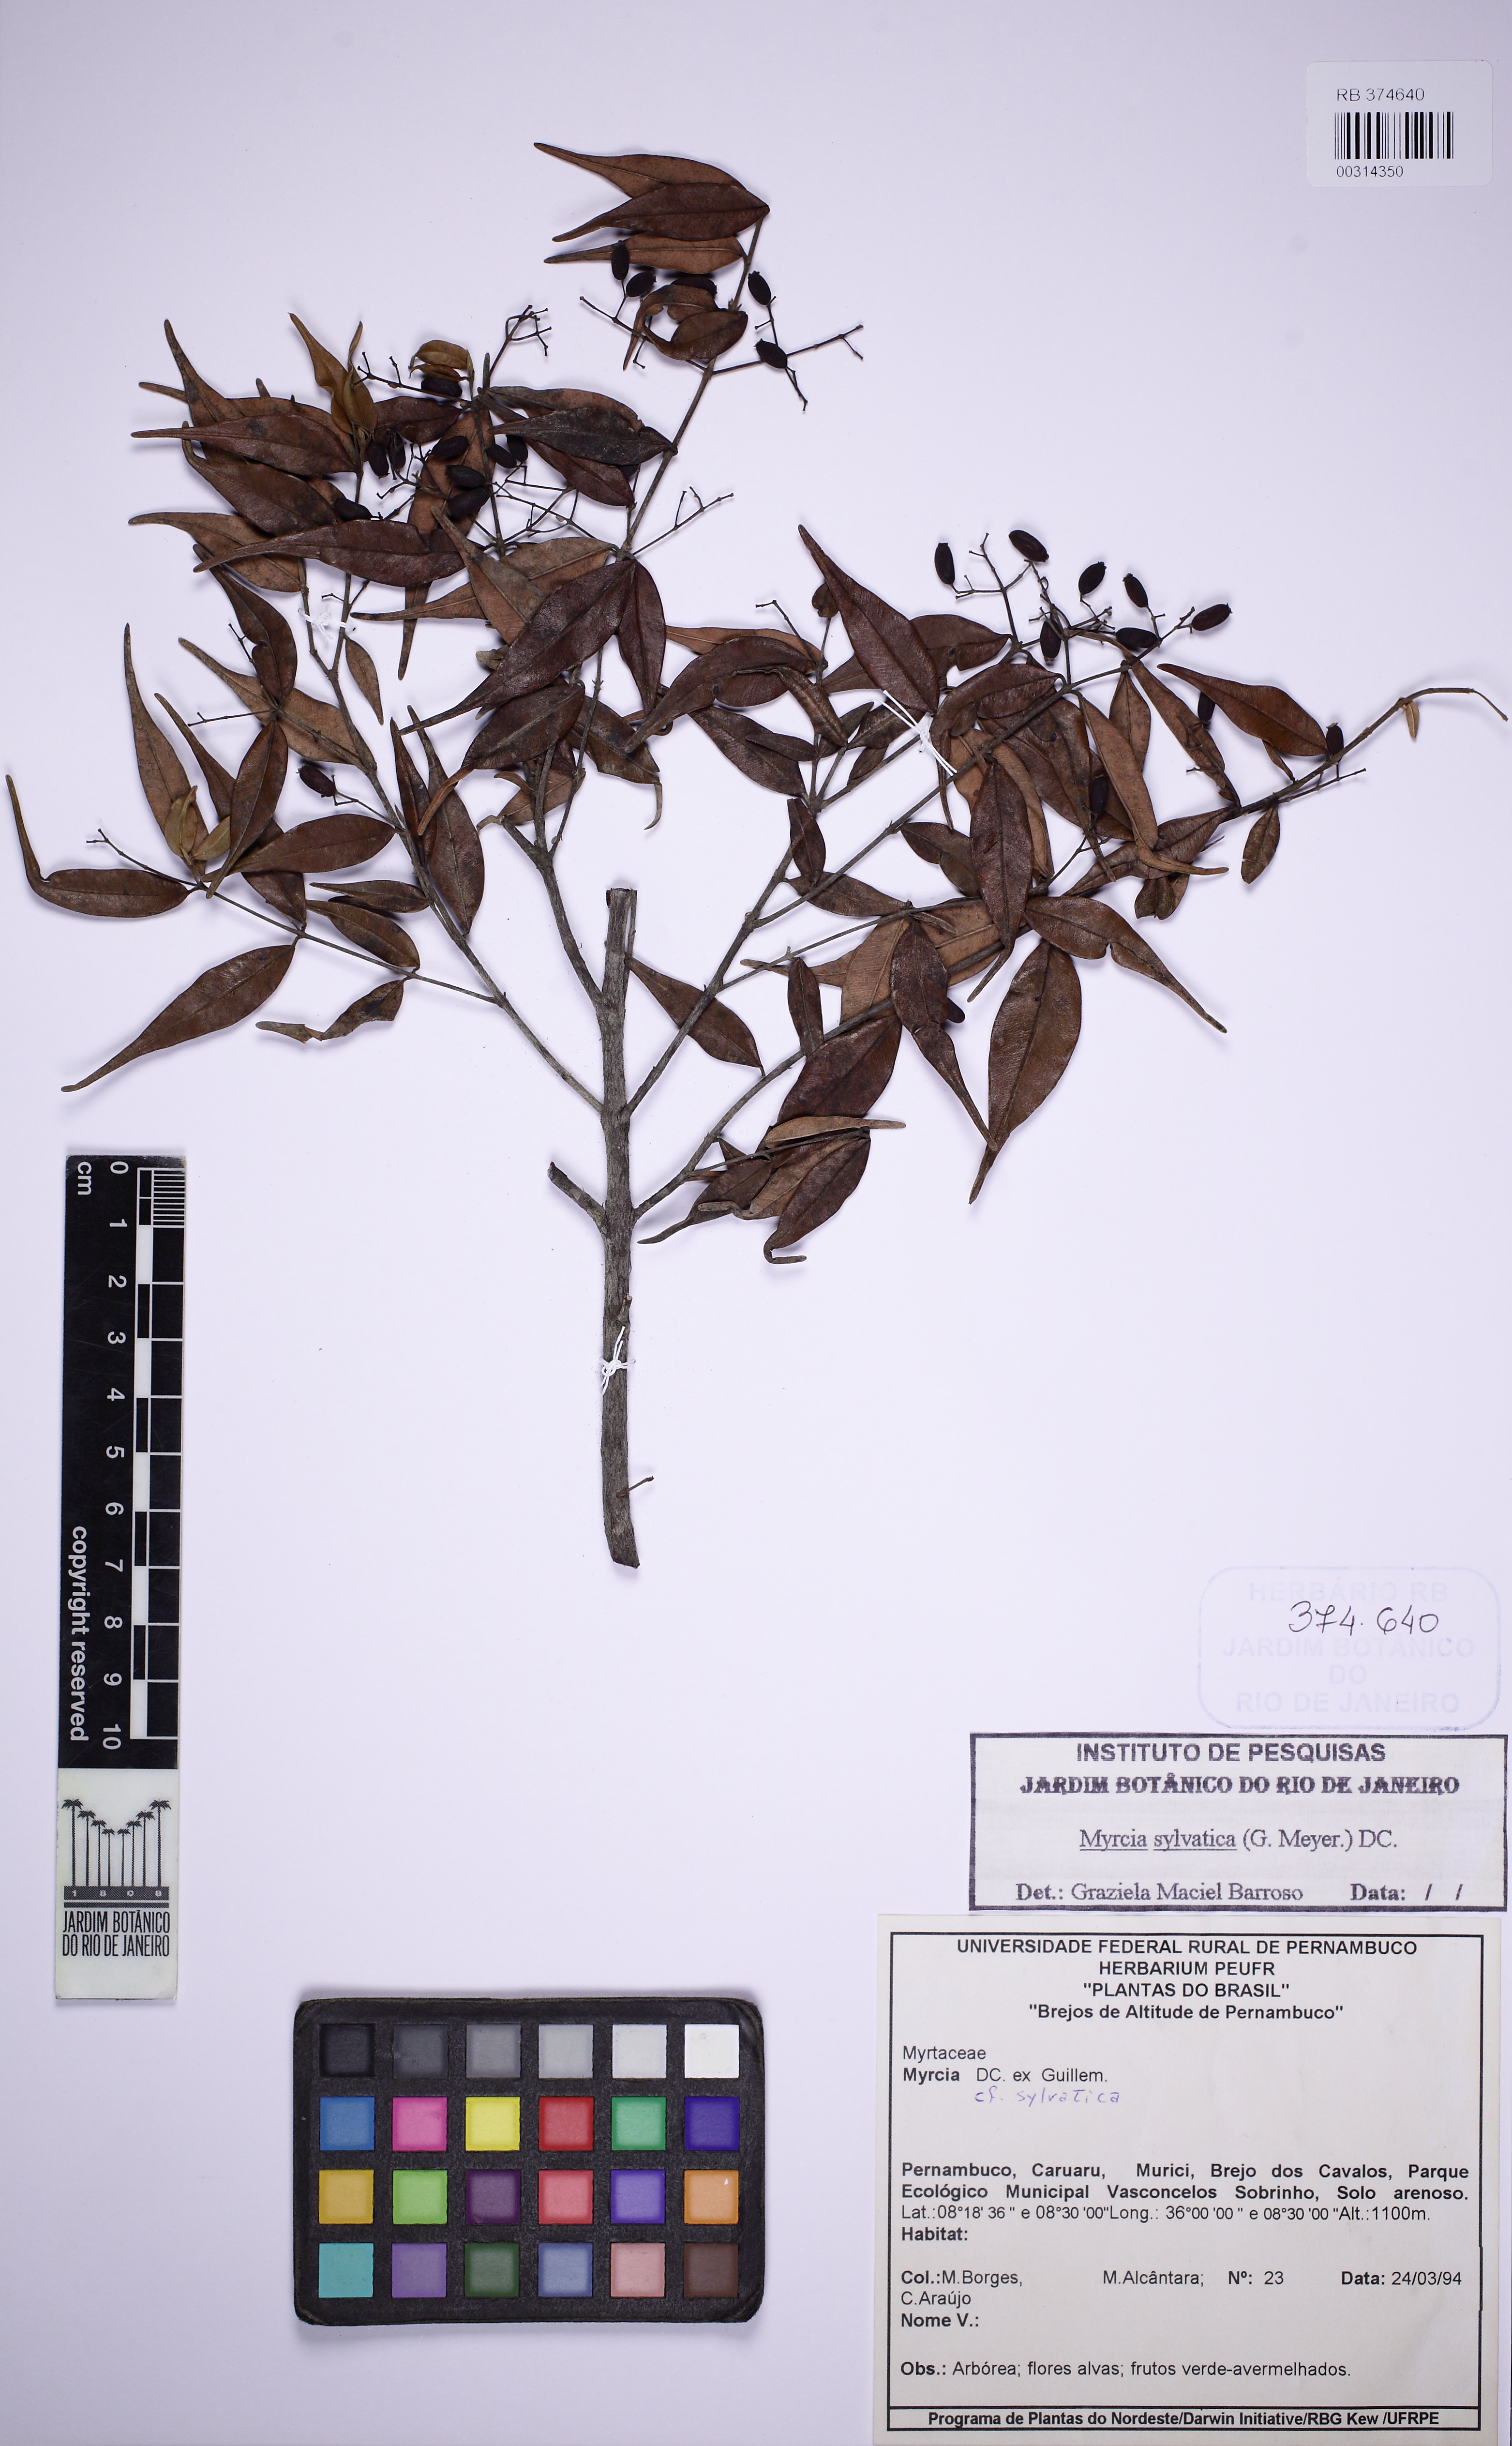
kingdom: Plantae
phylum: Tracheophyta
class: Magnoliopsida
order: Myrtales
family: Myrtaceae
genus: Myrcia
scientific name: Myrcia sylvatica
